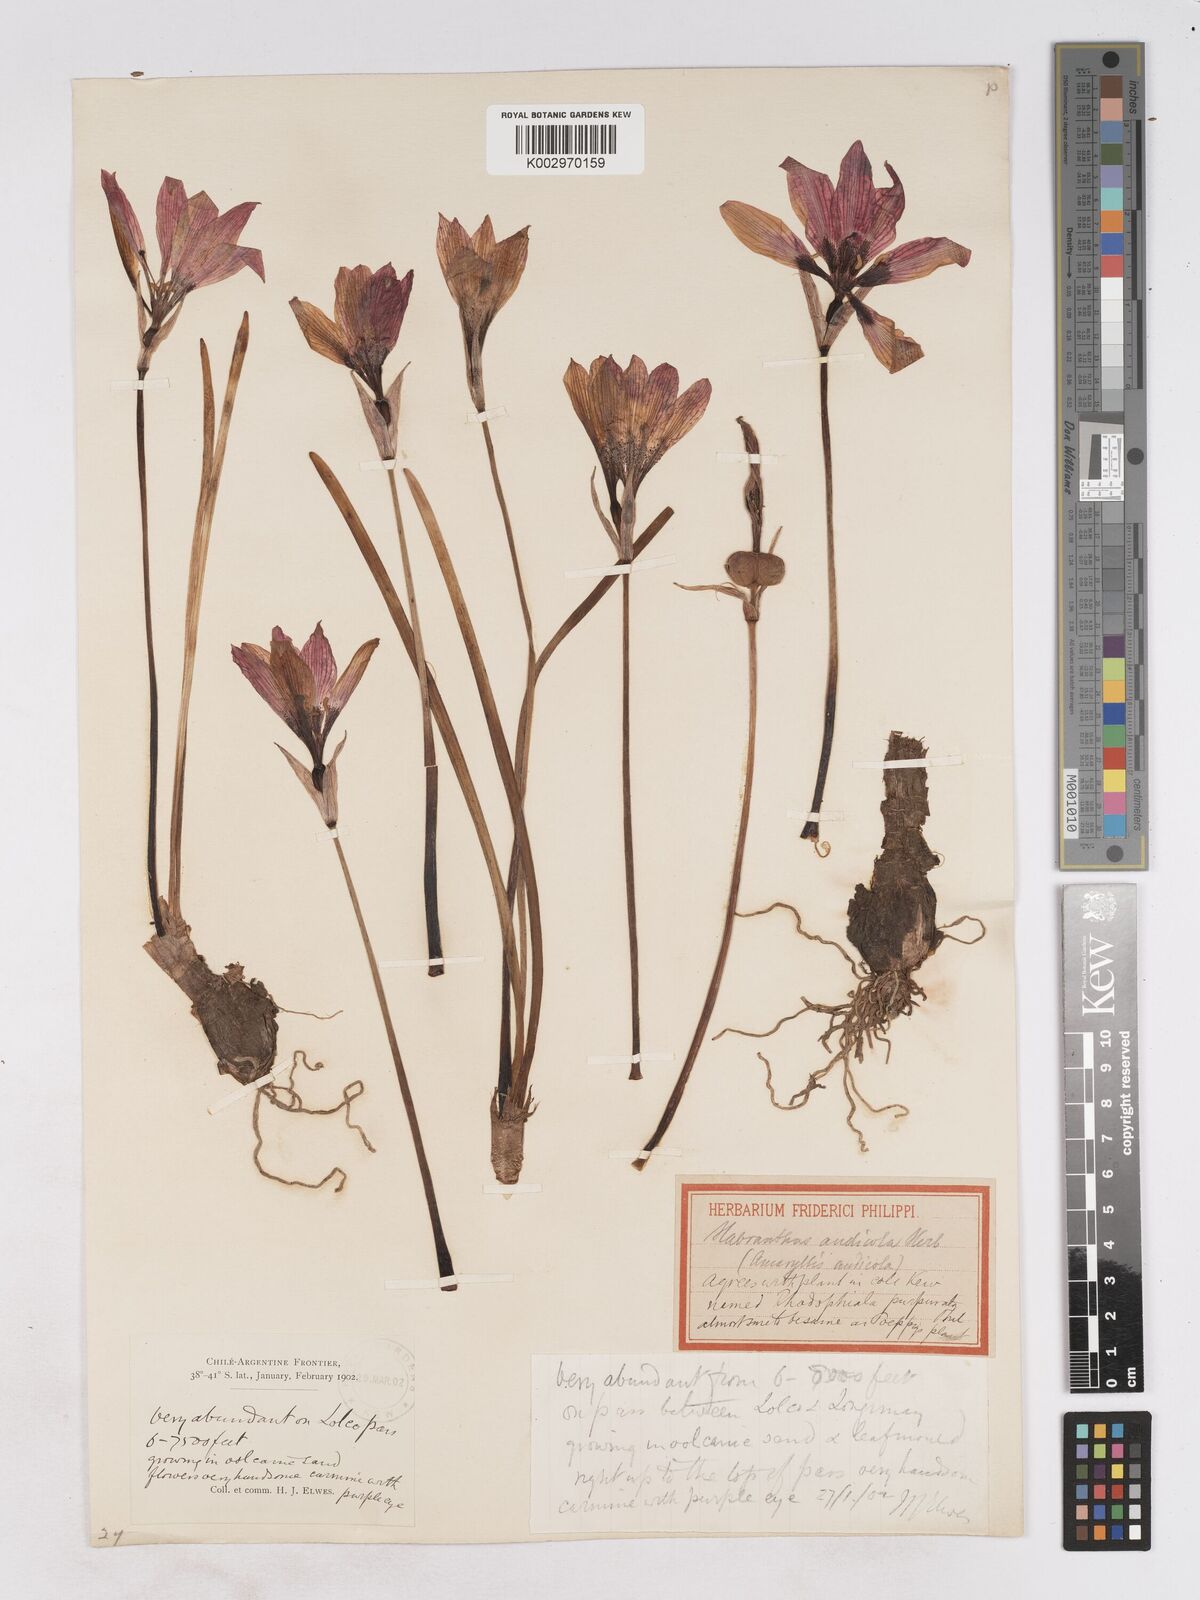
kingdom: Plantae
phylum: Tracheophyta
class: Liliopsida
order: Asparagales
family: Amaryllidaceae
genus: Rhodolirium
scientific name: Rhodolirium andicola
